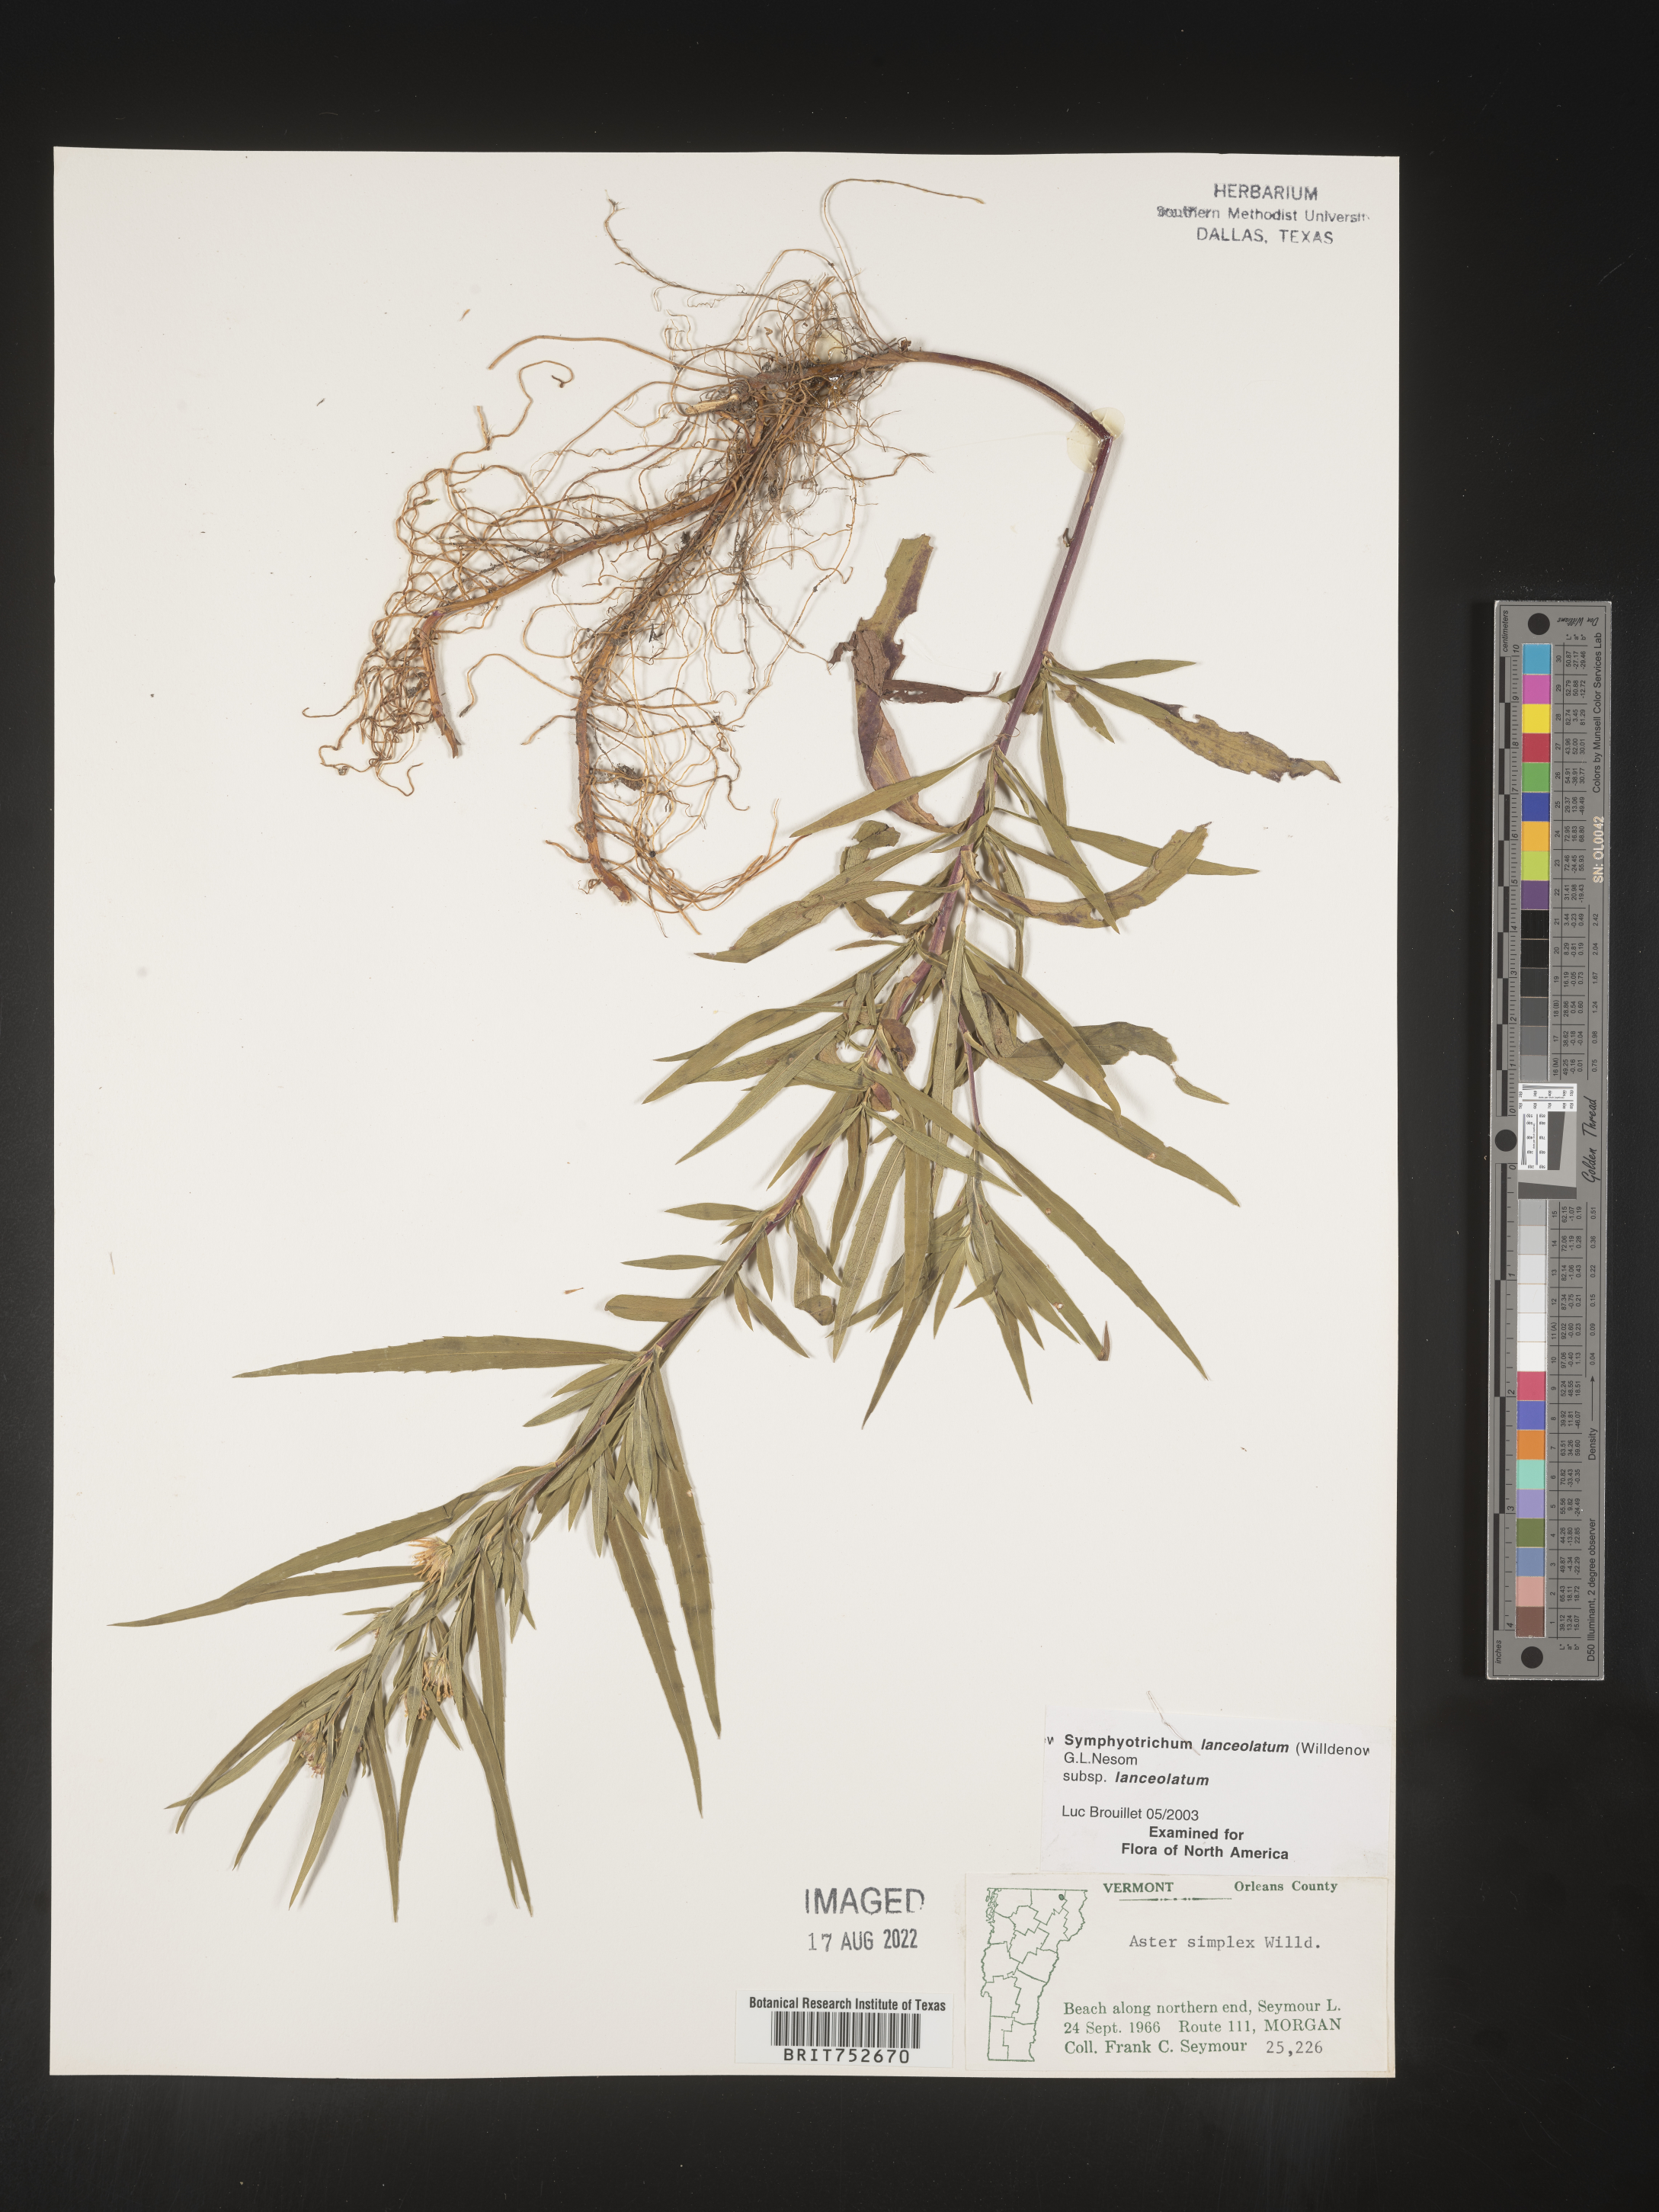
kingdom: Plantae
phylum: Tracheophyta
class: Magnoliopsida
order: Asterales
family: Asteraceae
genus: Symphyotrichum
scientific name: Symphyotrichum lanceolatum
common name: Panicled aster
